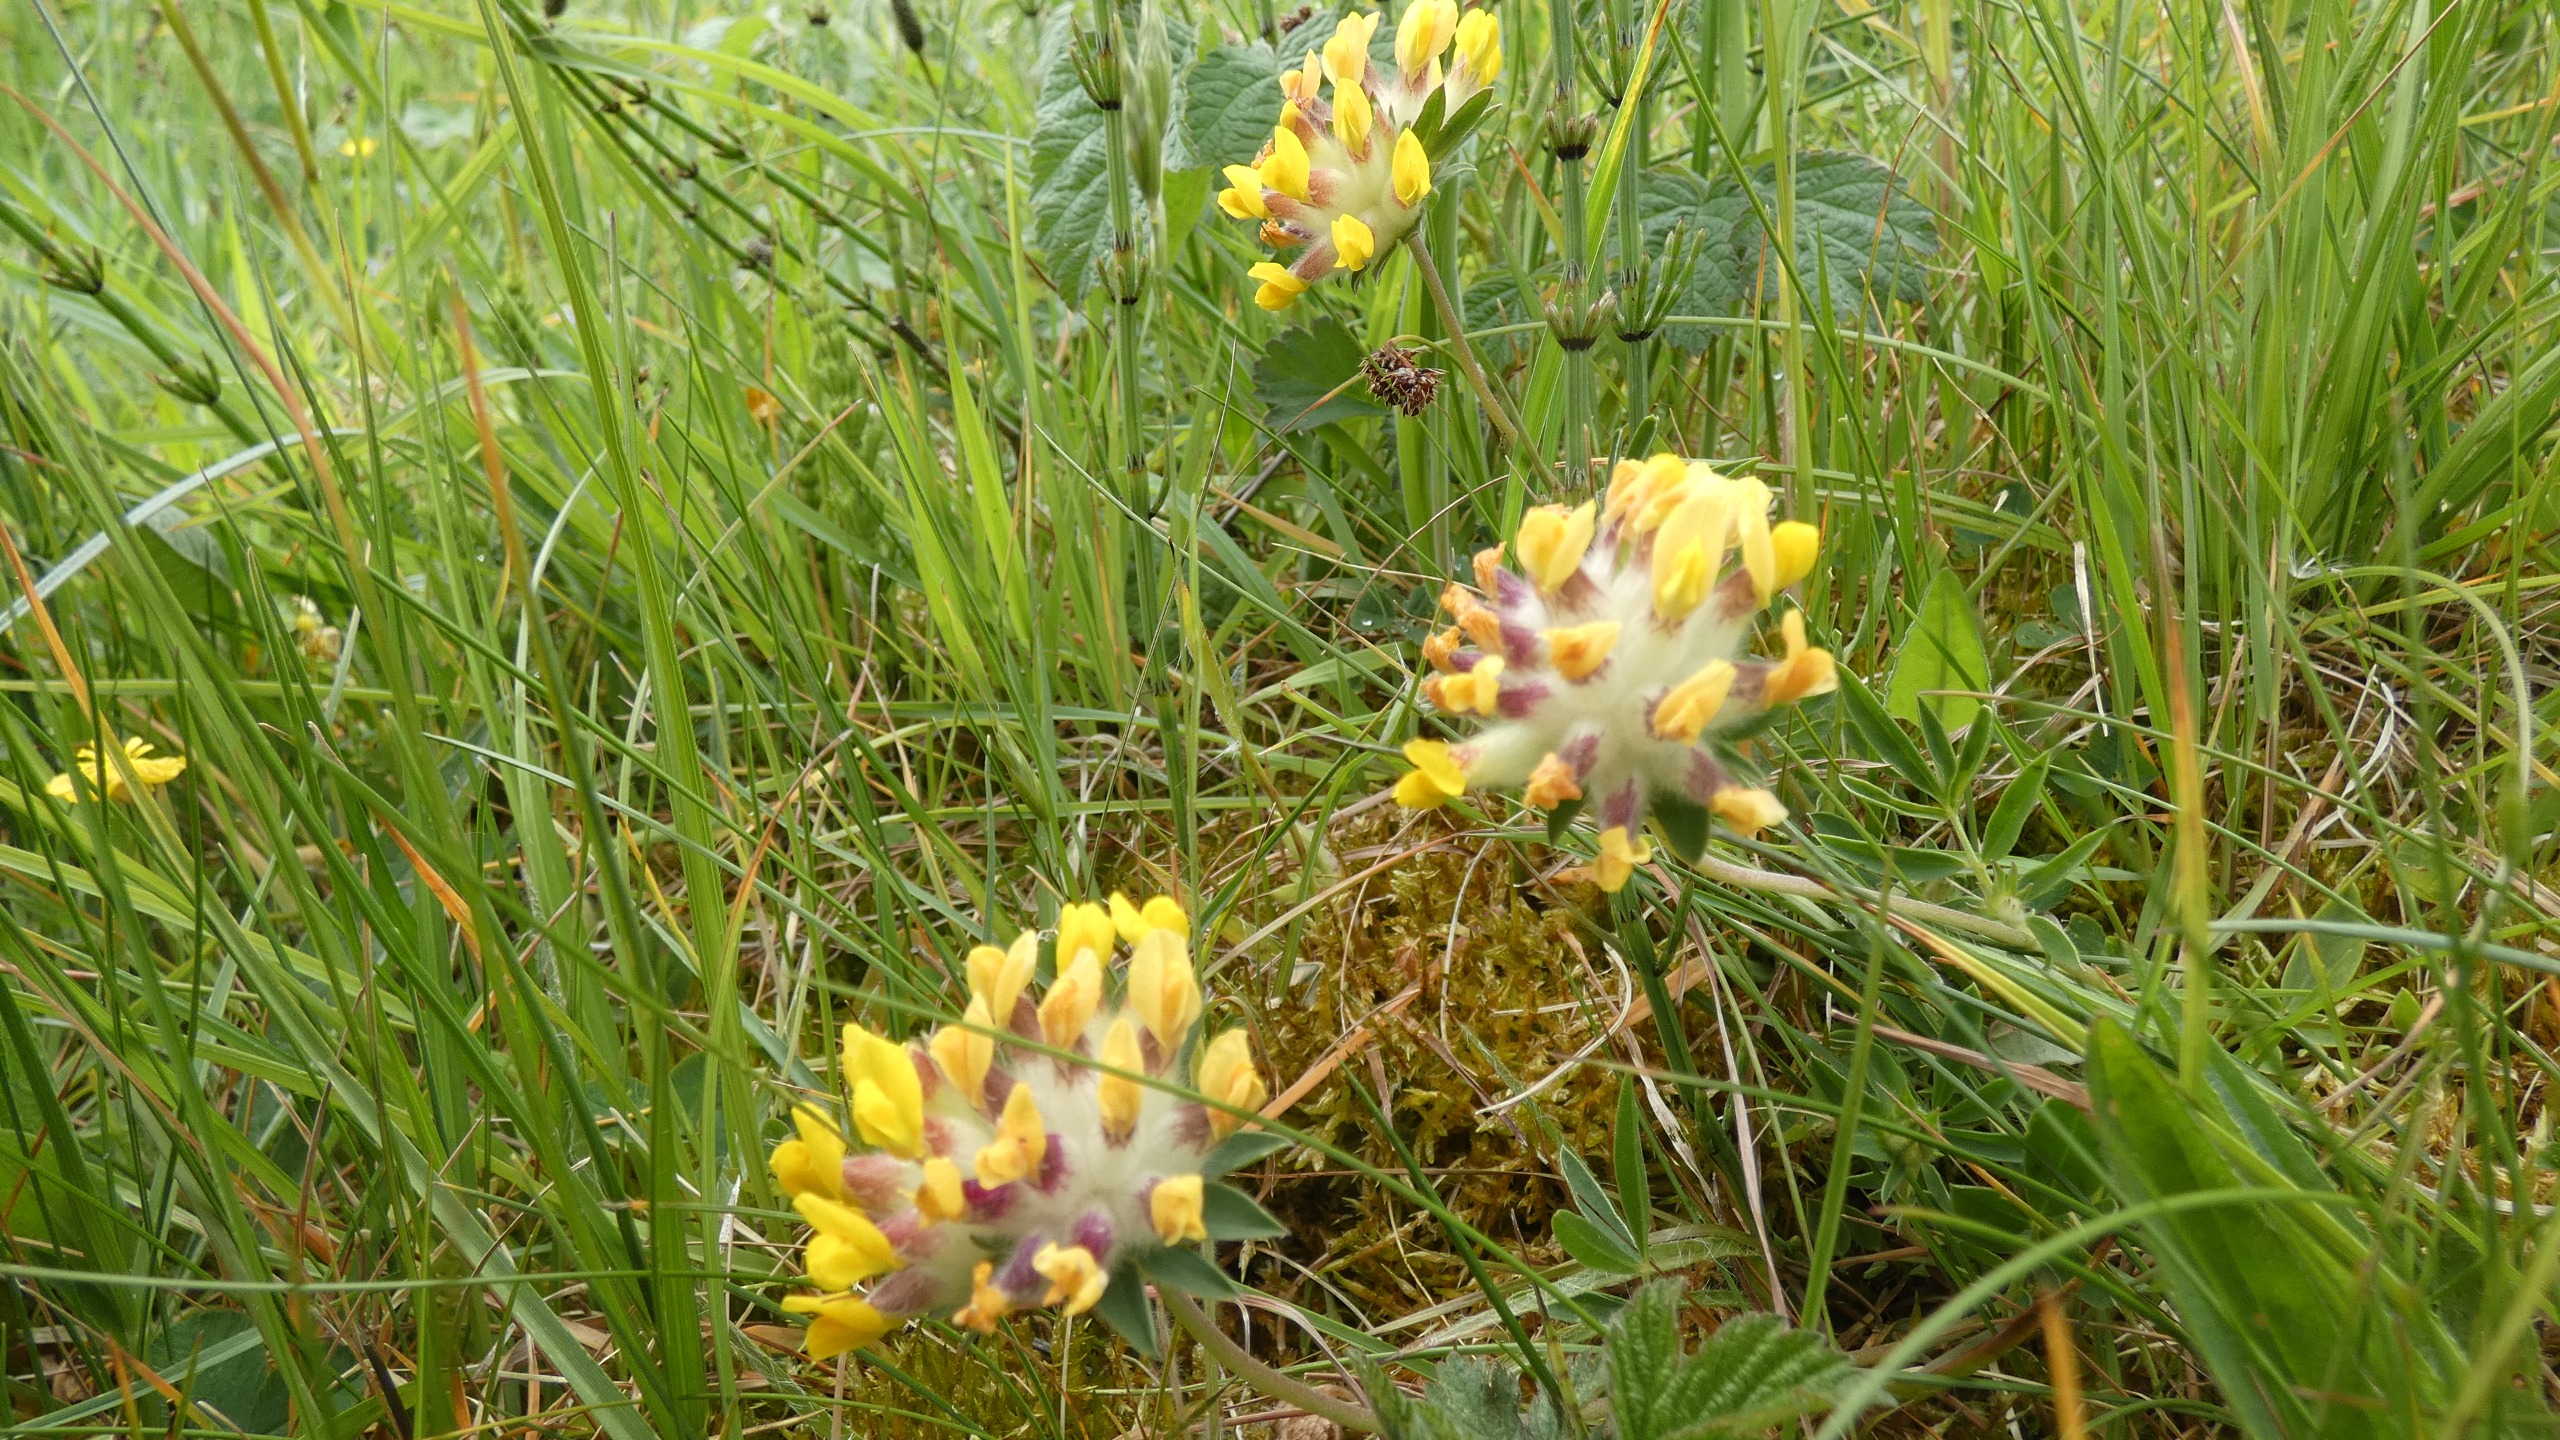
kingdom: Plantae
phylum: Tracheophyta
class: Magnoliopsida
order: Fabales
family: Fabaceae
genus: Anthyllis
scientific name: Anthyllis vulneraria
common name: Rundbælg
